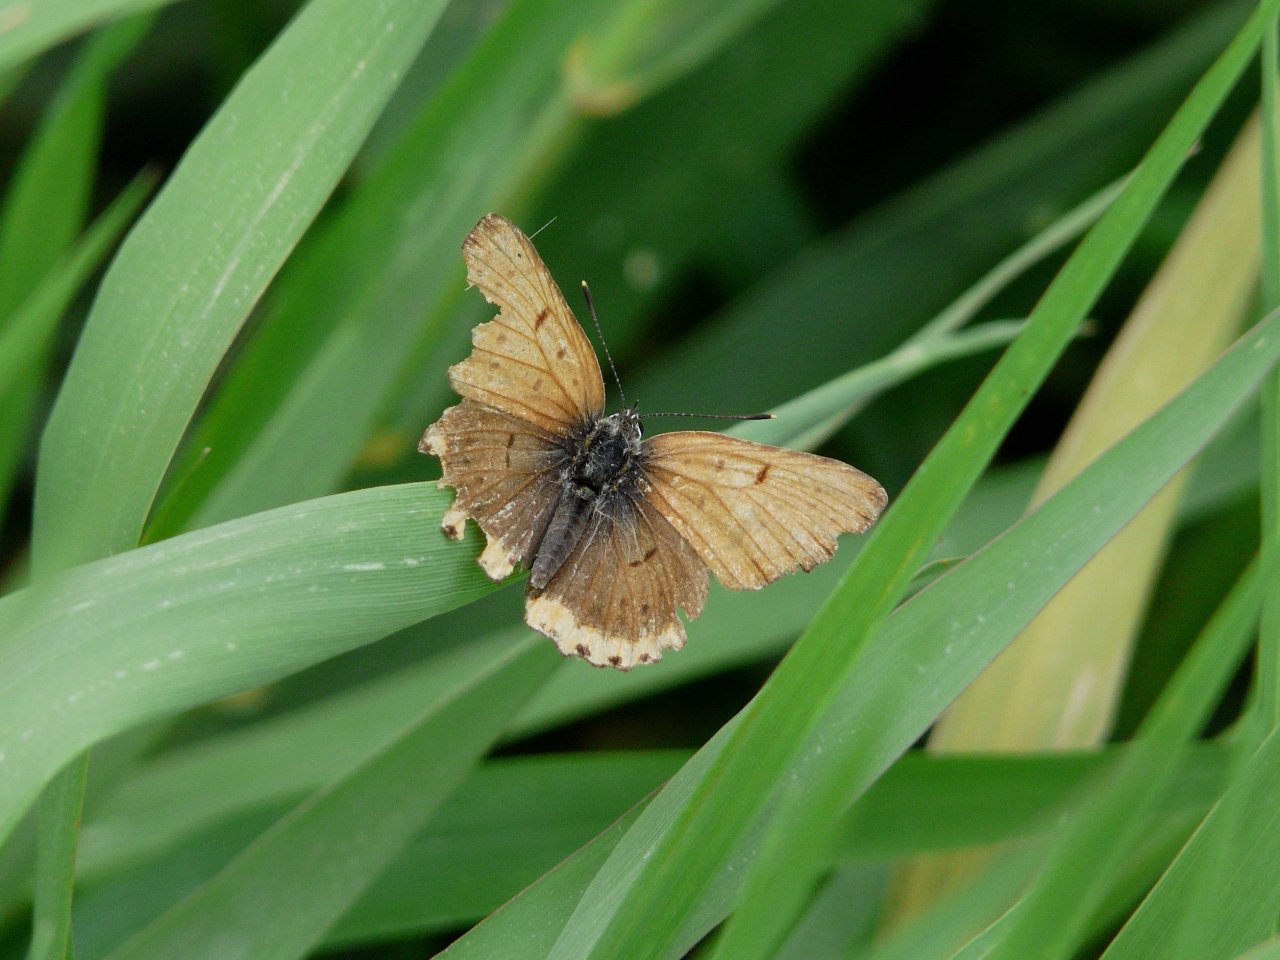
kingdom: Animalia
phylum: Arthropoda
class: Insecta
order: Lepidoptera
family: Sesiidae
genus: Sesia
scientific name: Sesia Lycaena hyllus
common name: Bronze Copper
